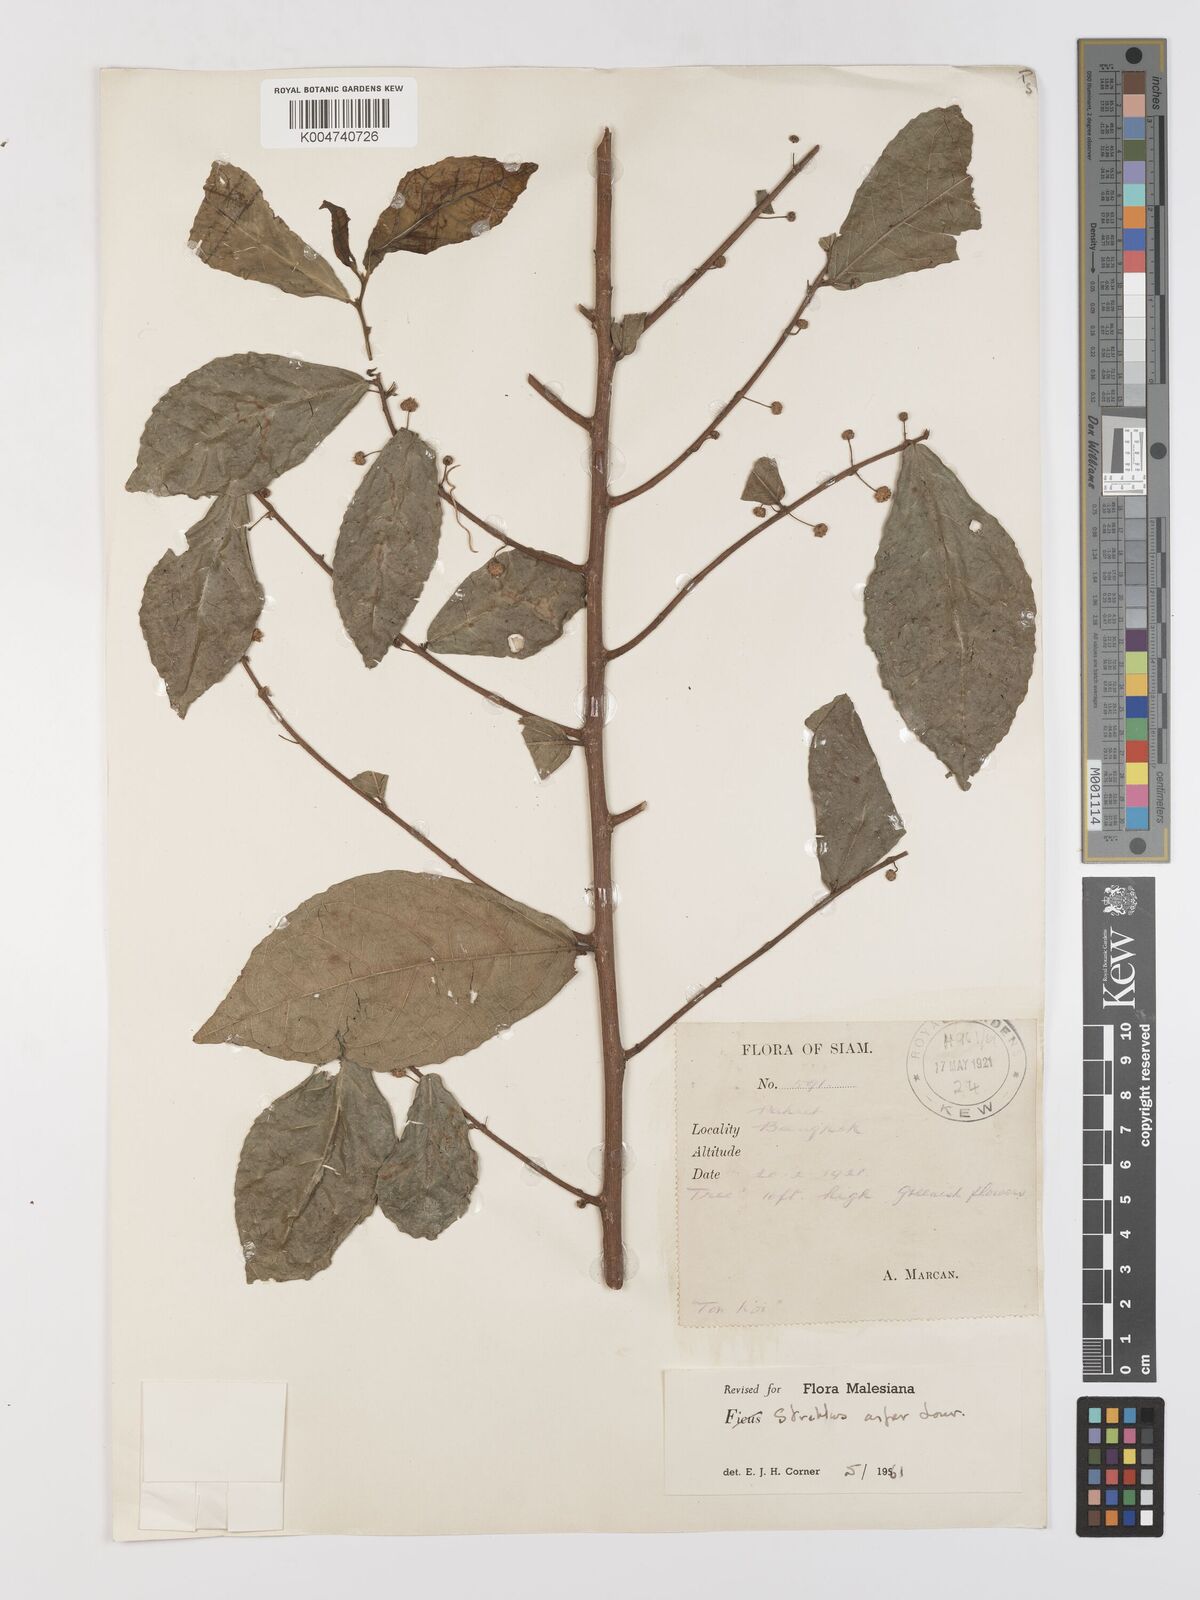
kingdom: Plantae
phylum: Tracheophyta
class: Magnoliopsida
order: Rosales
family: Moraceae
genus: Streblus
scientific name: Streblus asper
